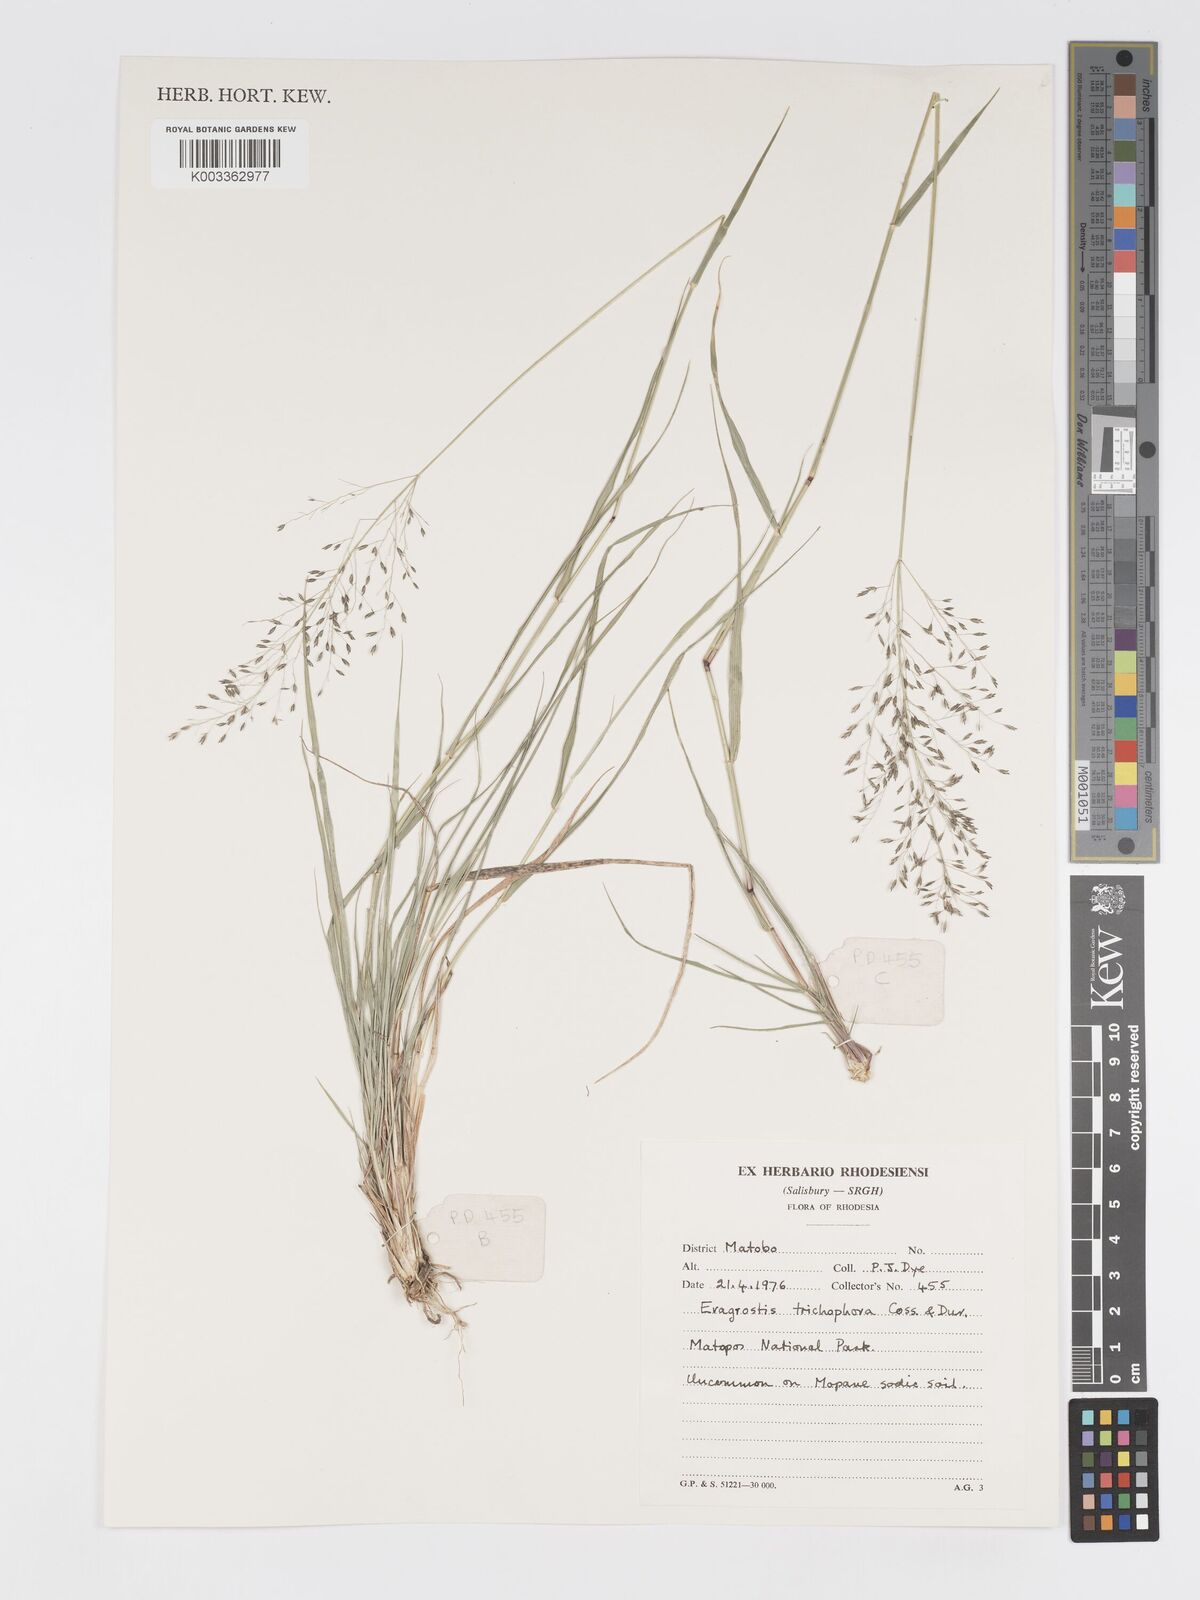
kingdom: Plantae
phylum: Tracheophyta
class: Liliopsida
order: Poales
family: Poaceae
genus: Eragrostis
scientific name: Eragrostis cylindriflora
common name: Cylinderflower lovegrass
